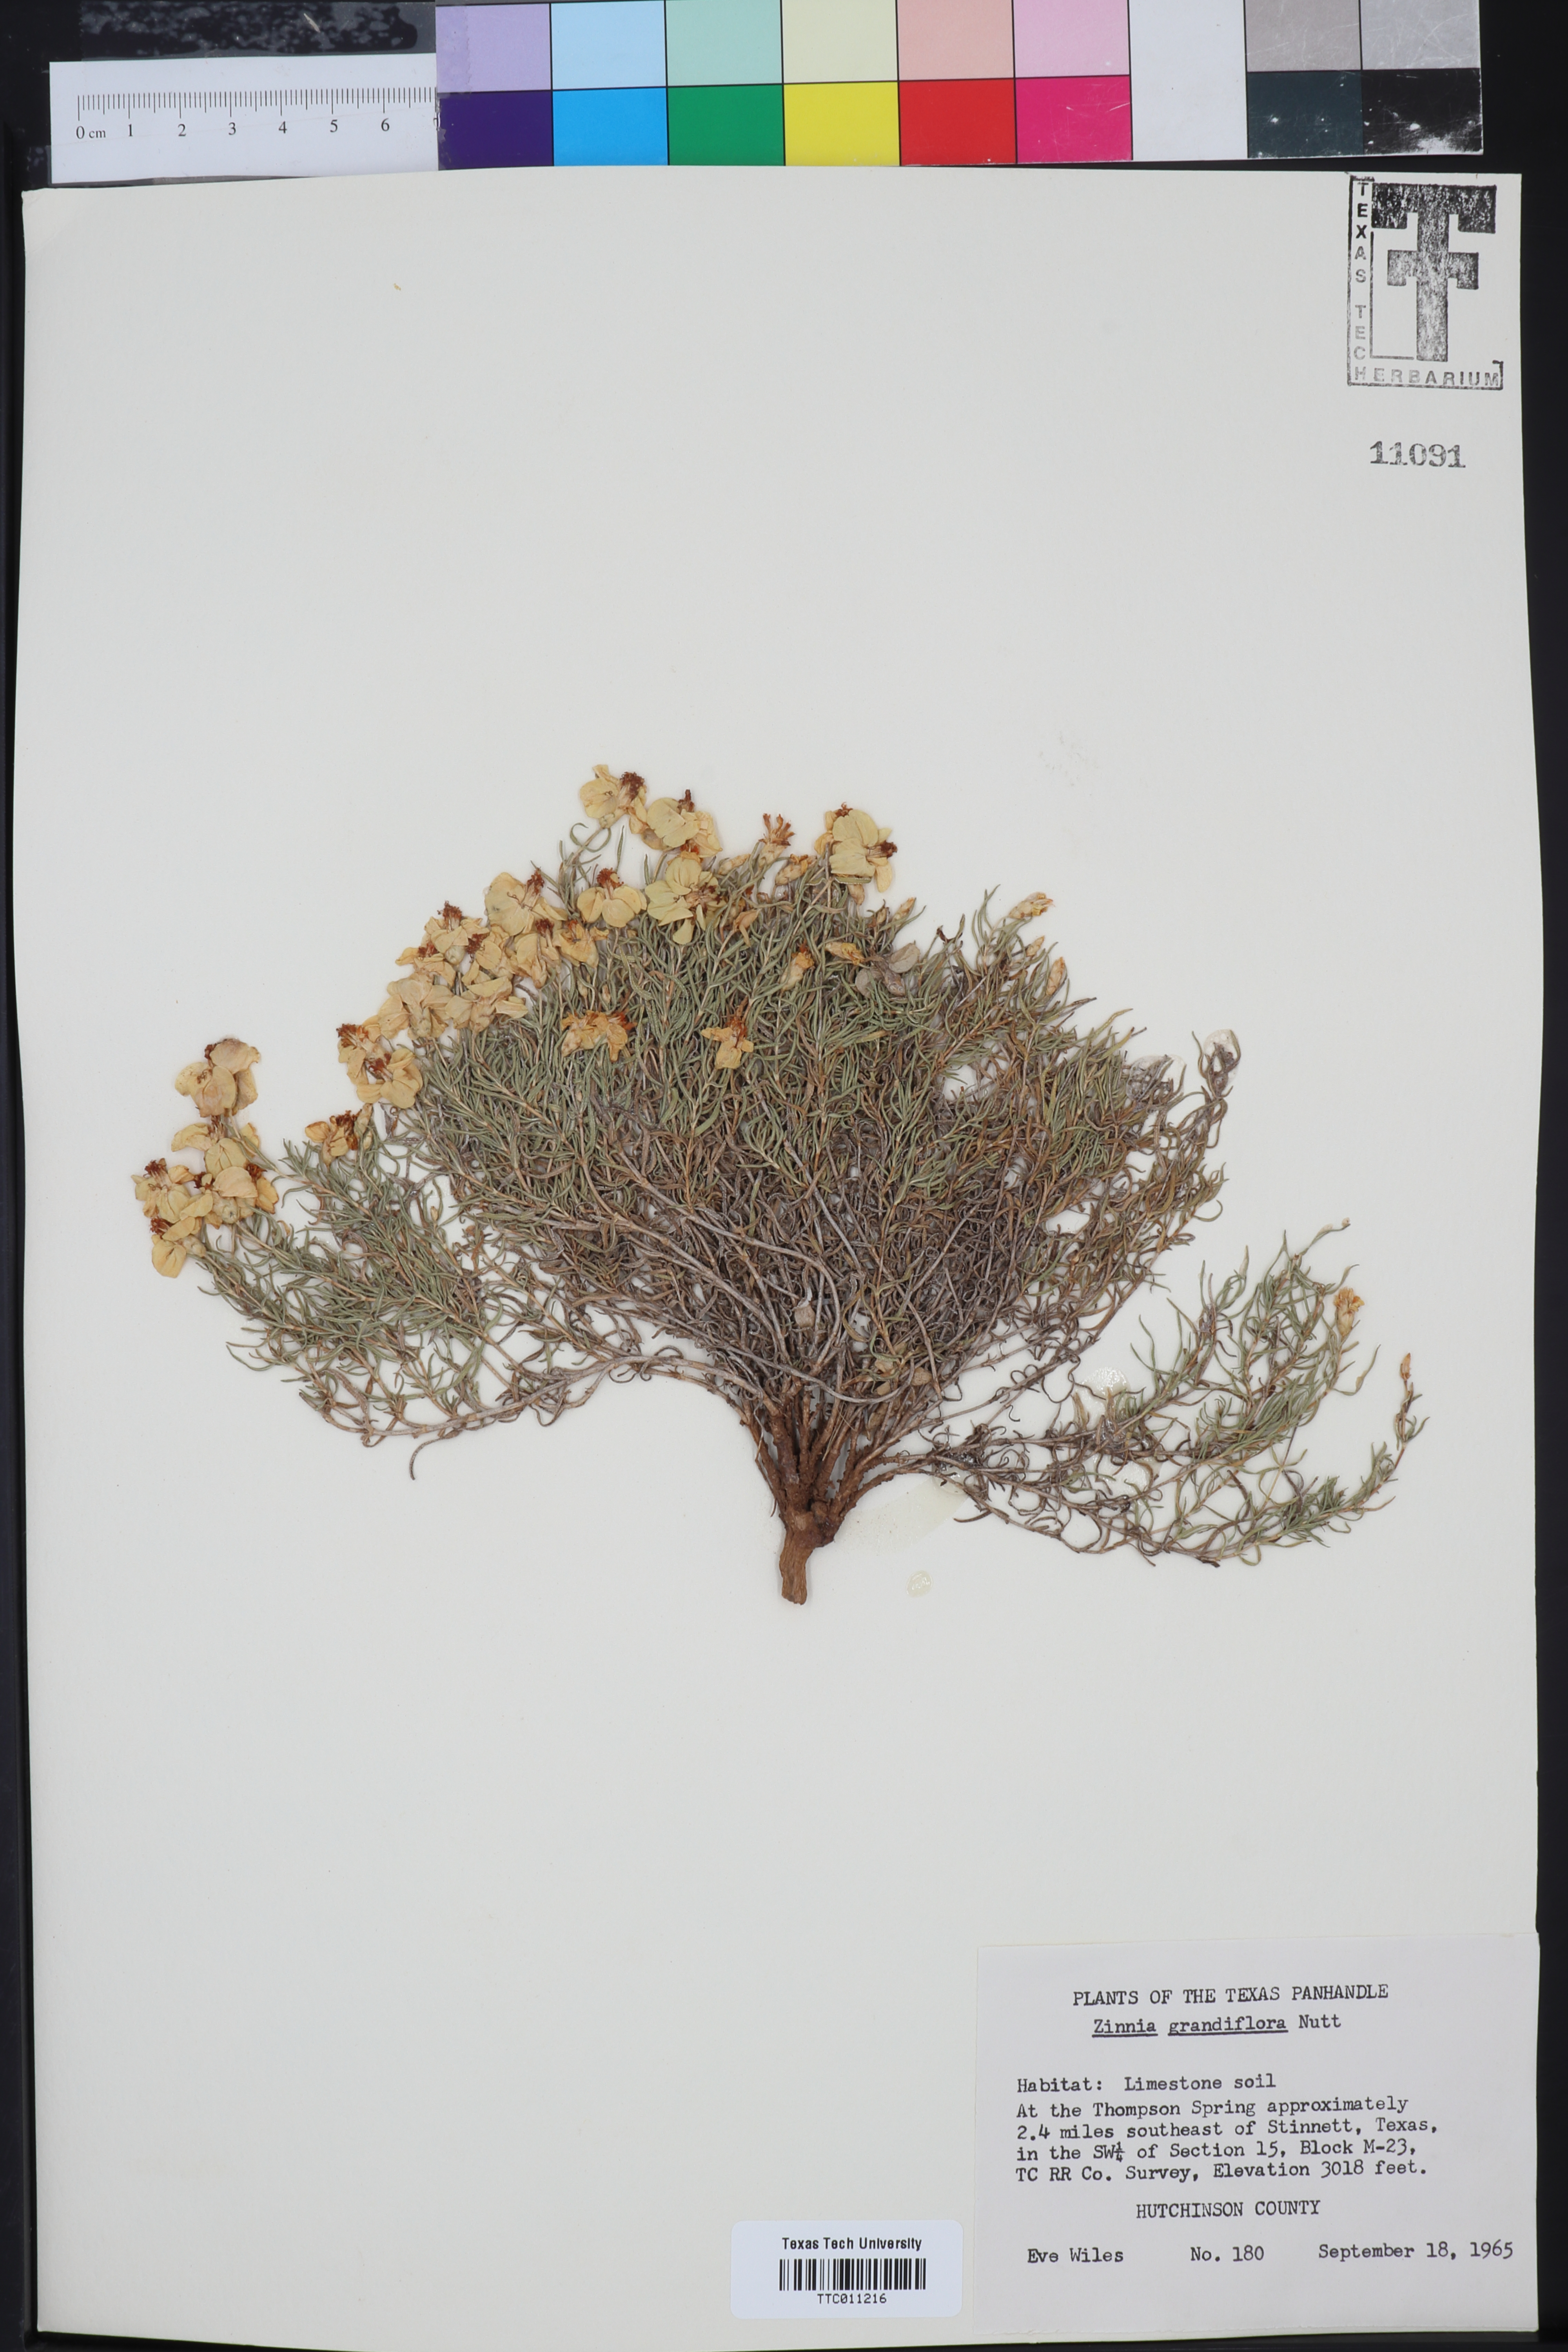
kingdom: Plantae
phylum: Tracheophyta
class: Magnoliopsida
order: Asterales
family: Asteraceae
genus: Zinnia
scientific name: Zinnia grandiflora
